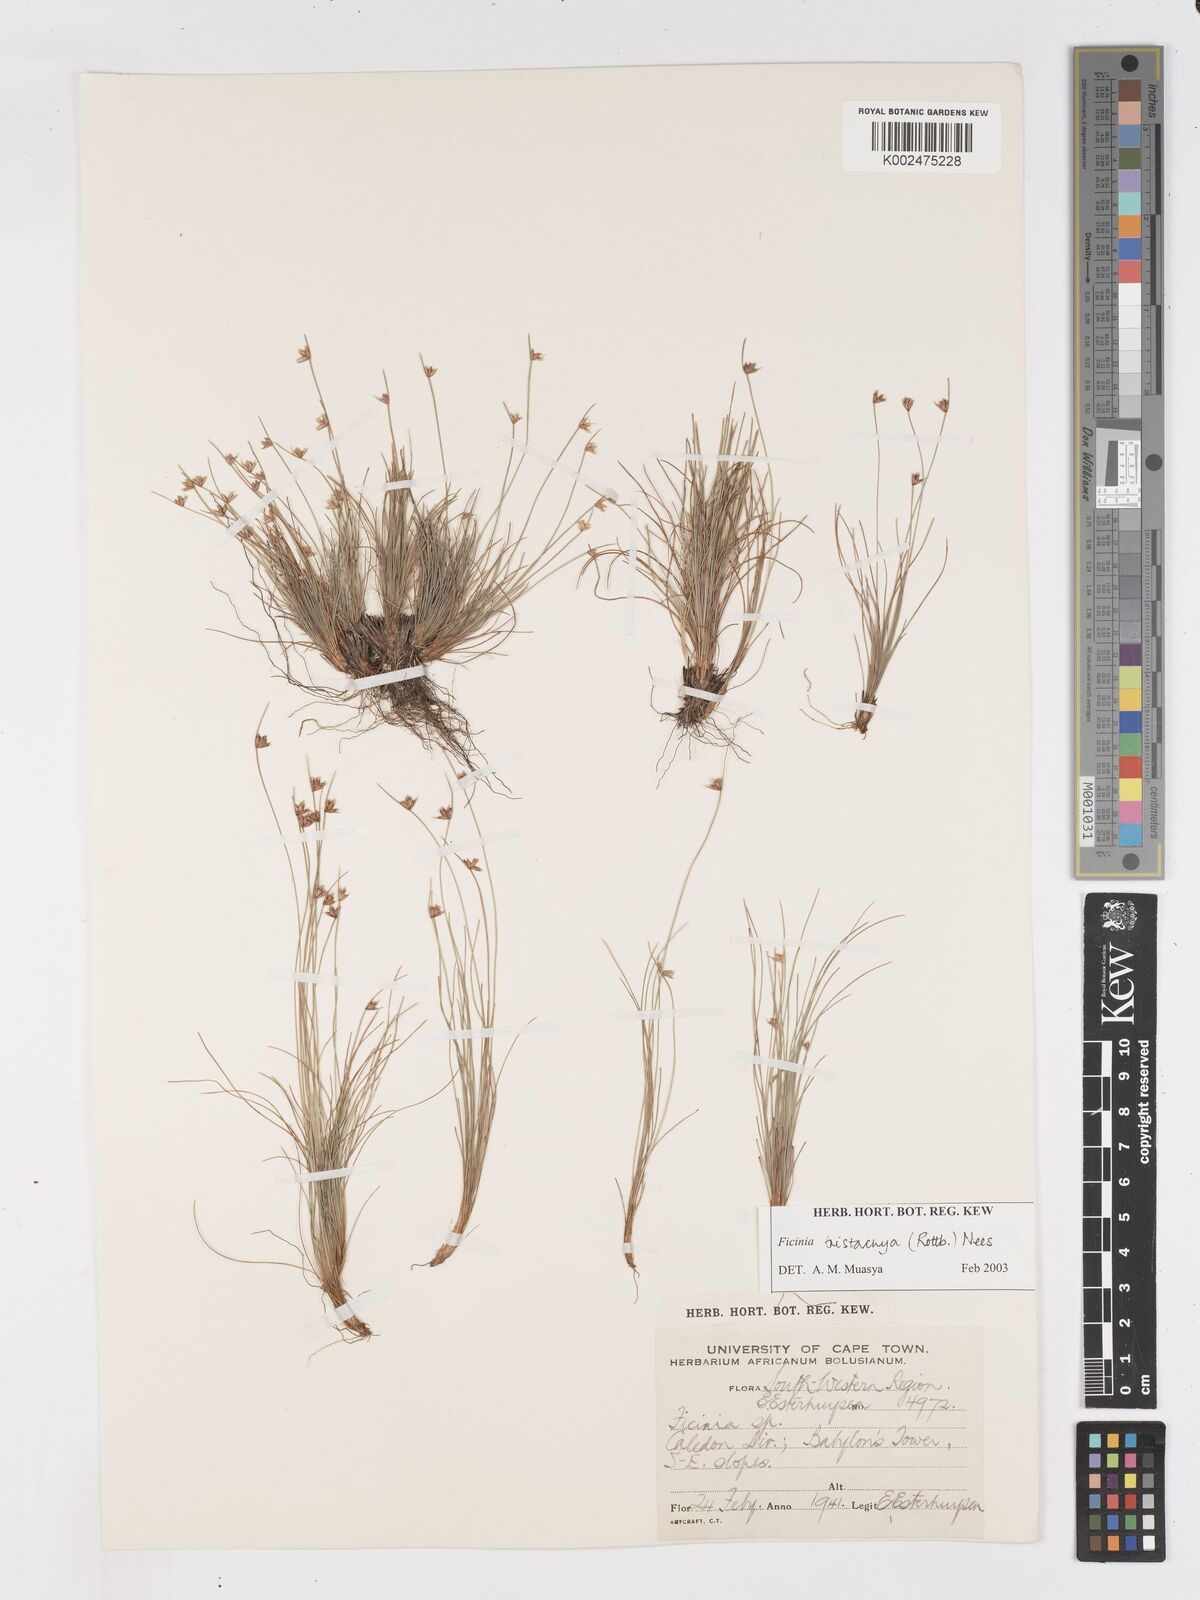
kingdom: Plantae
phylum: Tracheophyta
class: Liliopsida
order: Poales
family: Cyperaceae
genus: Ficinia
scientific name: Ficinia tristachya
